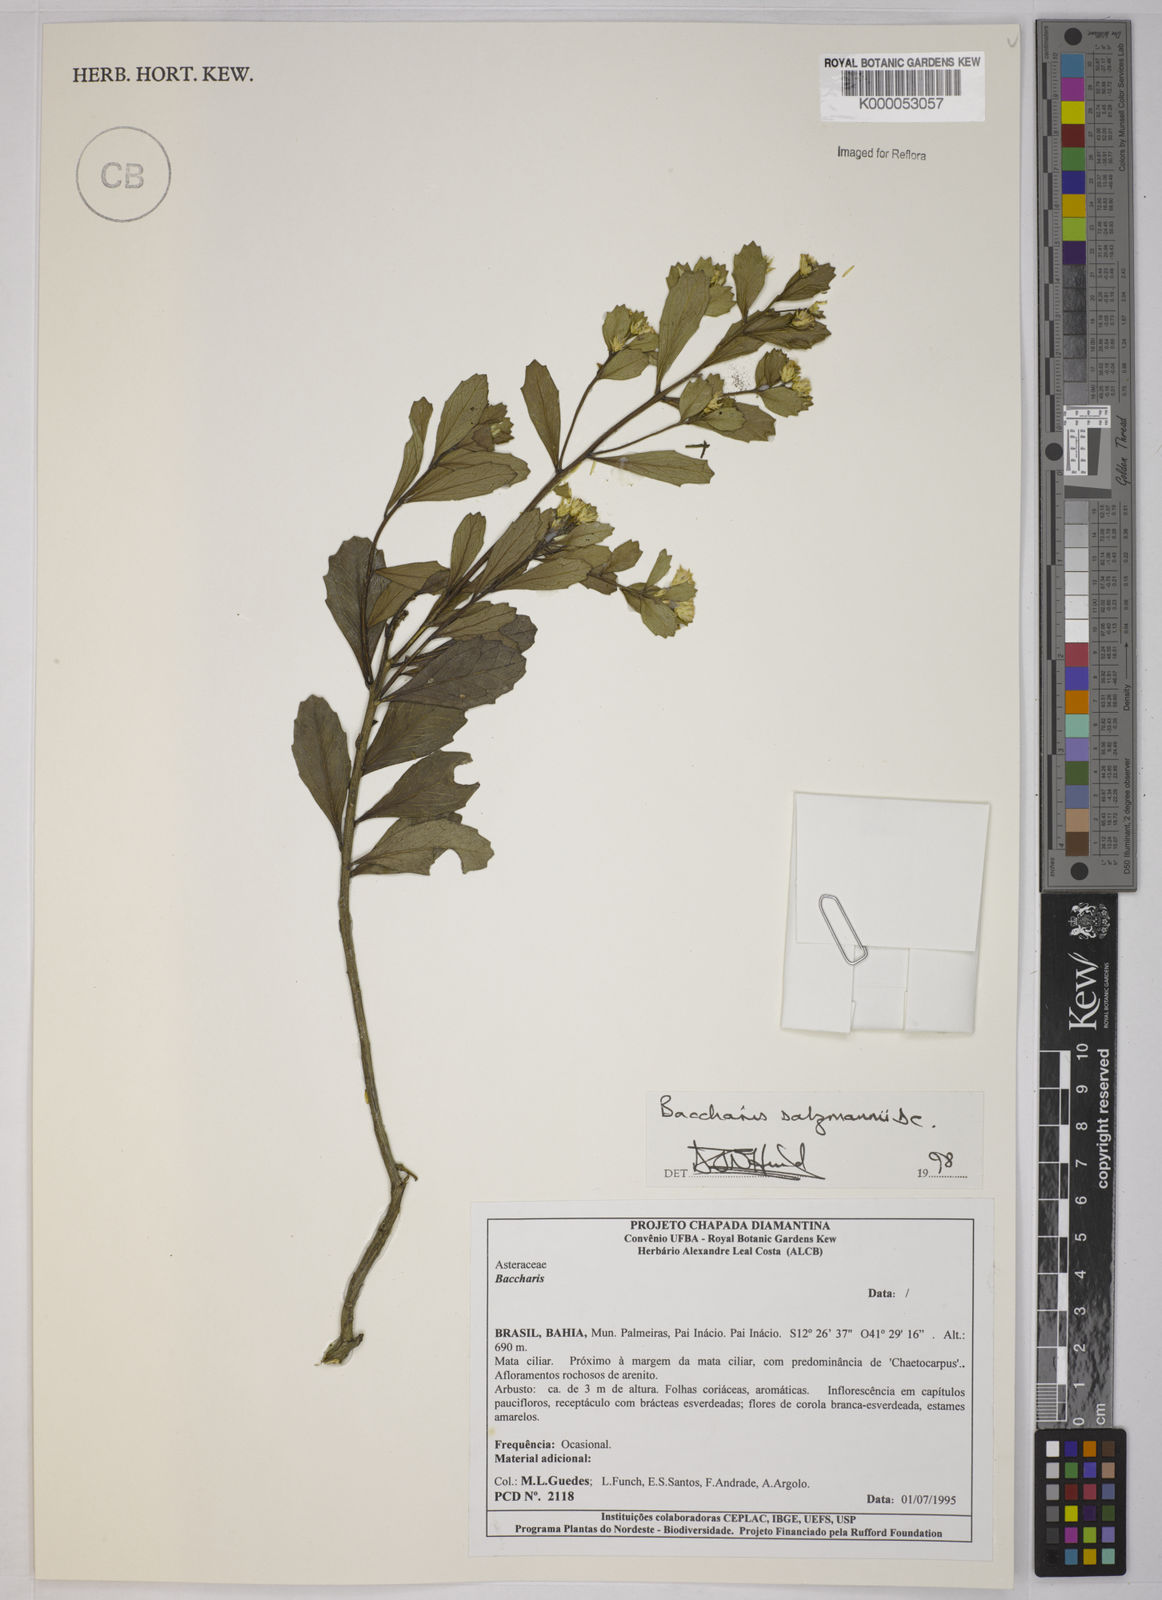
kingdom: Plantae
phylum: Tracheophyta
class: Magnoliopsida
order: Asterales
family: Asteraceae
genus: Baccharis
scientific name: Baccharis retusa
